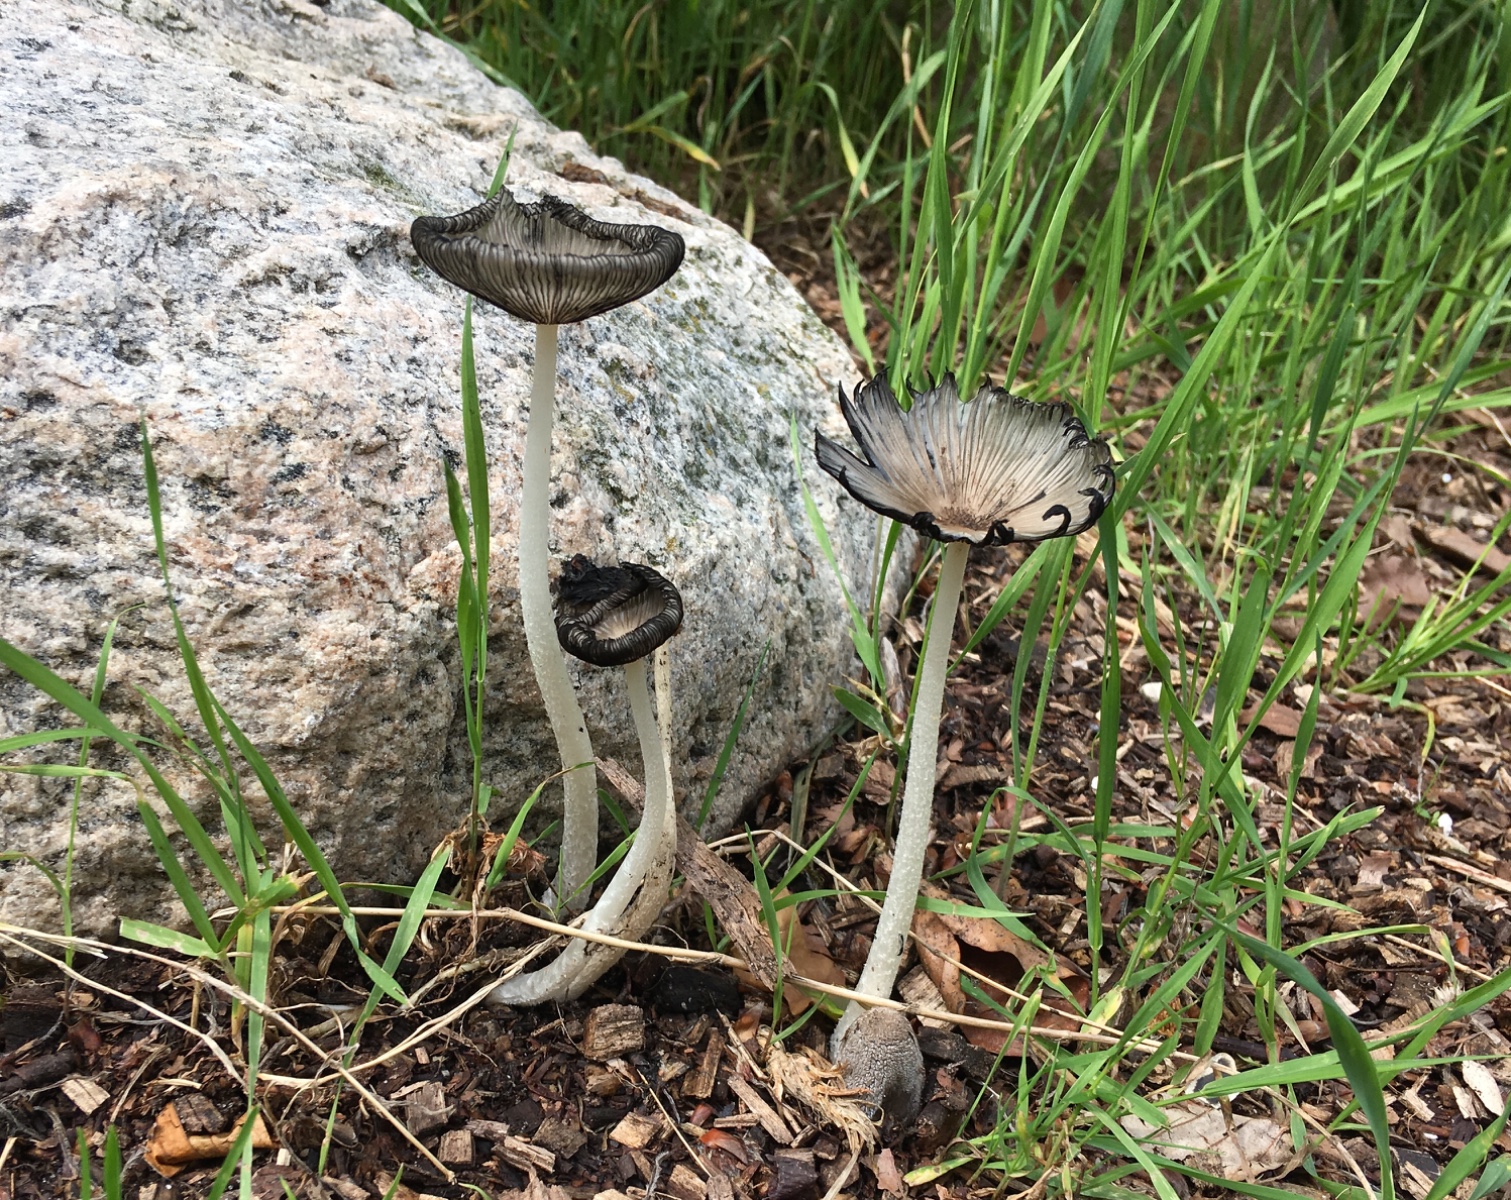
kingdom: Fungi
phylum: Basidiomycota
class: Agaricomycetes
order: Agaricales
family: Psathyrellaceae
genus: Coprinopsis
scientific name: Coprinopsis lagopus
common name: dunstokket blækhat
